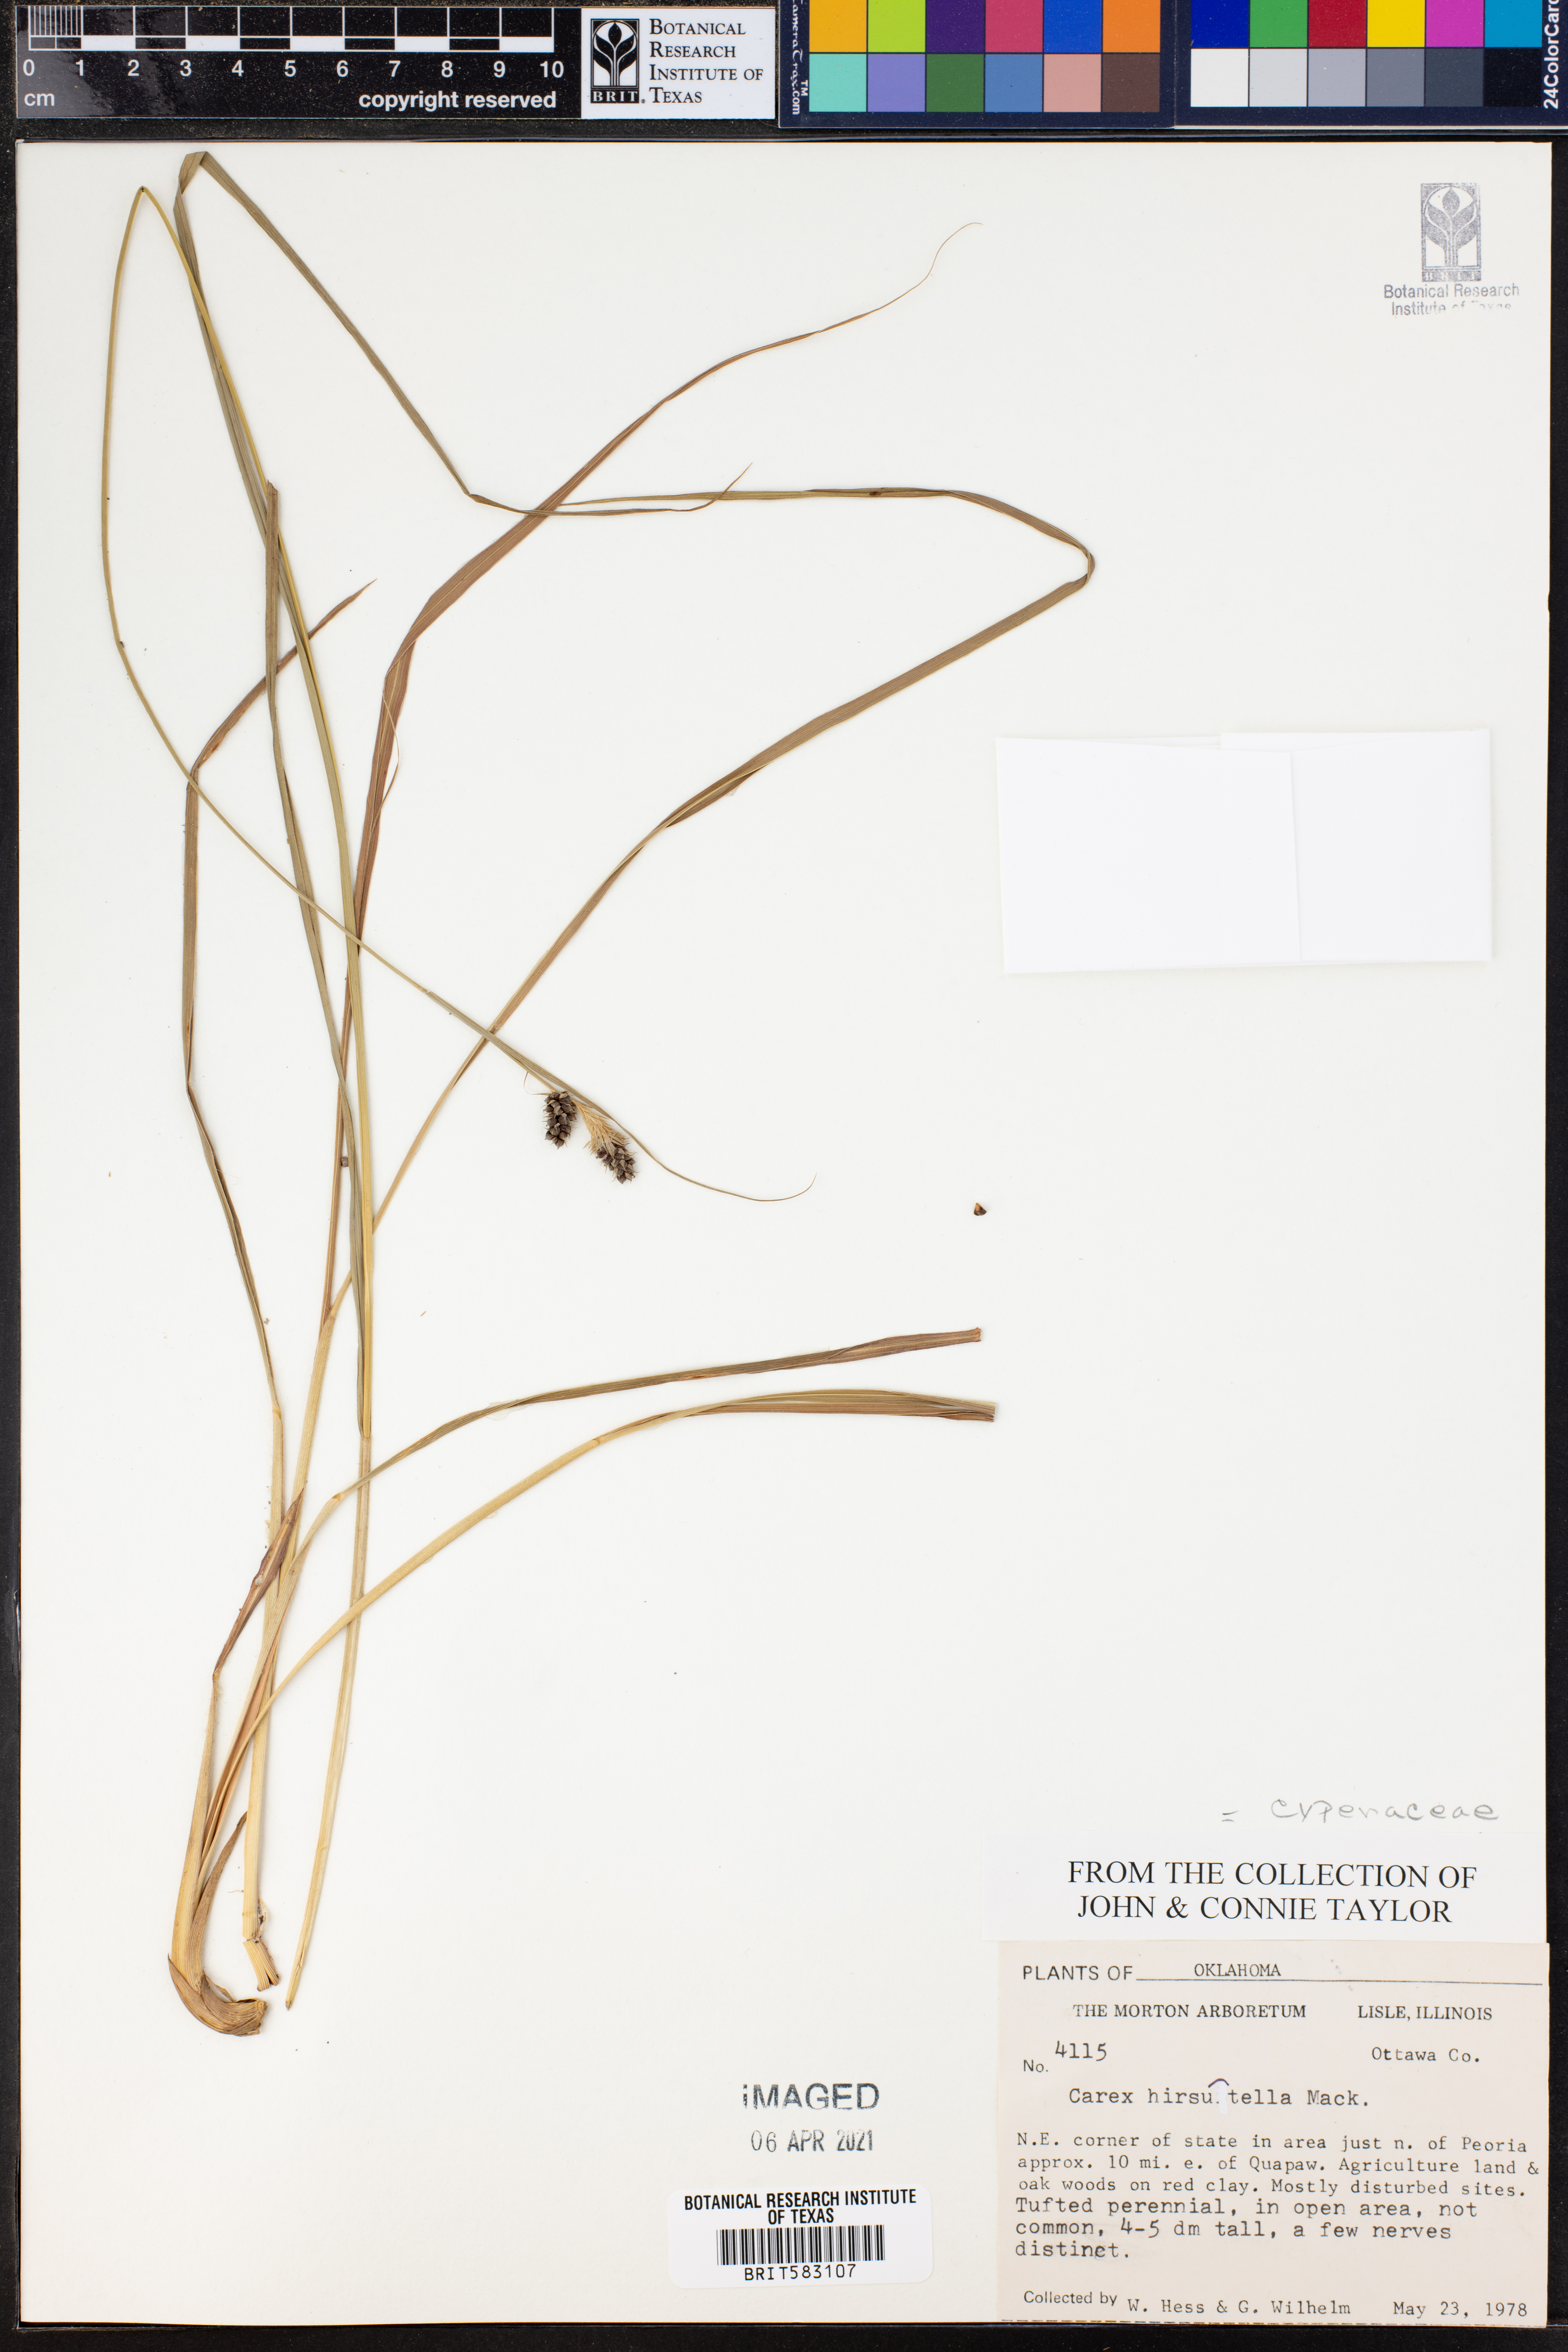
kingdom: Plantae
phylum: Tracheophyta
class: Liliopsida
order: Poales
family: Cyperaceae
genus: Carex
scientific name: Carex hirsutella
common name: Fuzzy wuzzy sedge
